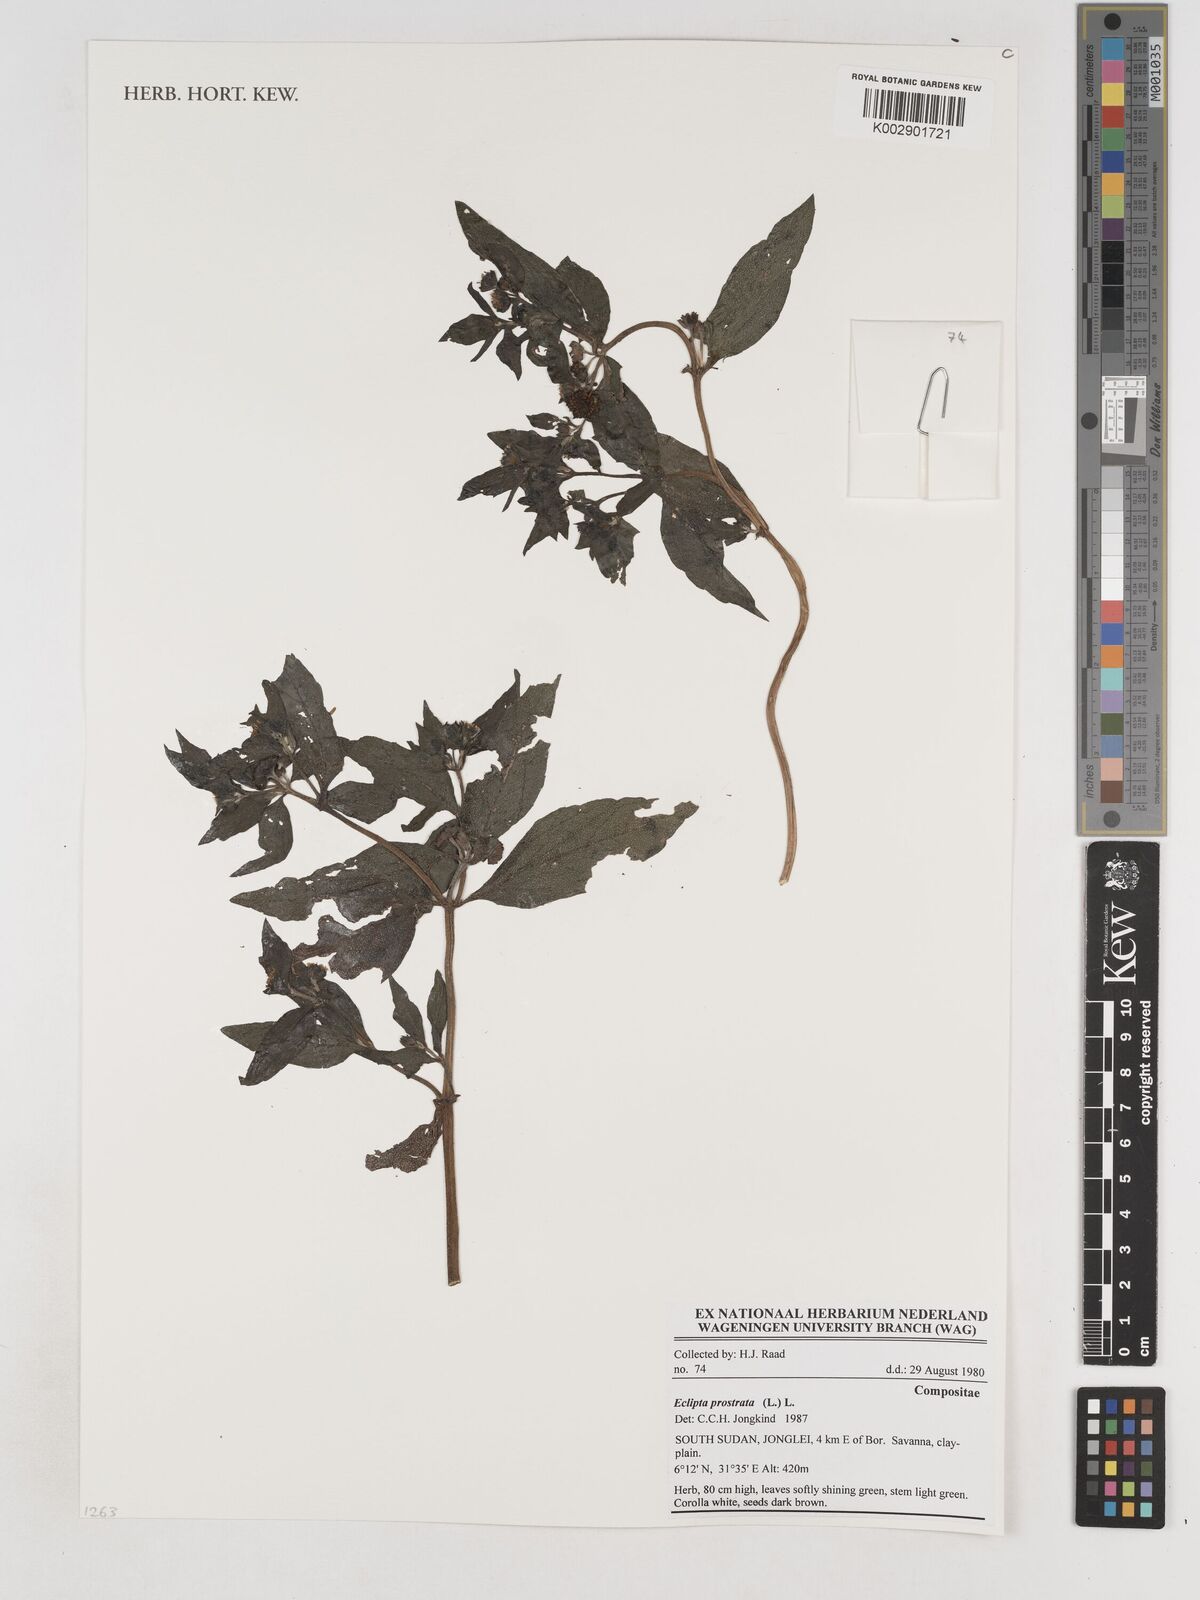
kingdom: Plantae
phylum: Tracheophyta
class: Magnoliopsida
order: Asterales
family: Asteraceae
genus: Eclipta
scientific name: Eclipta prostrata
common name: False daisy
